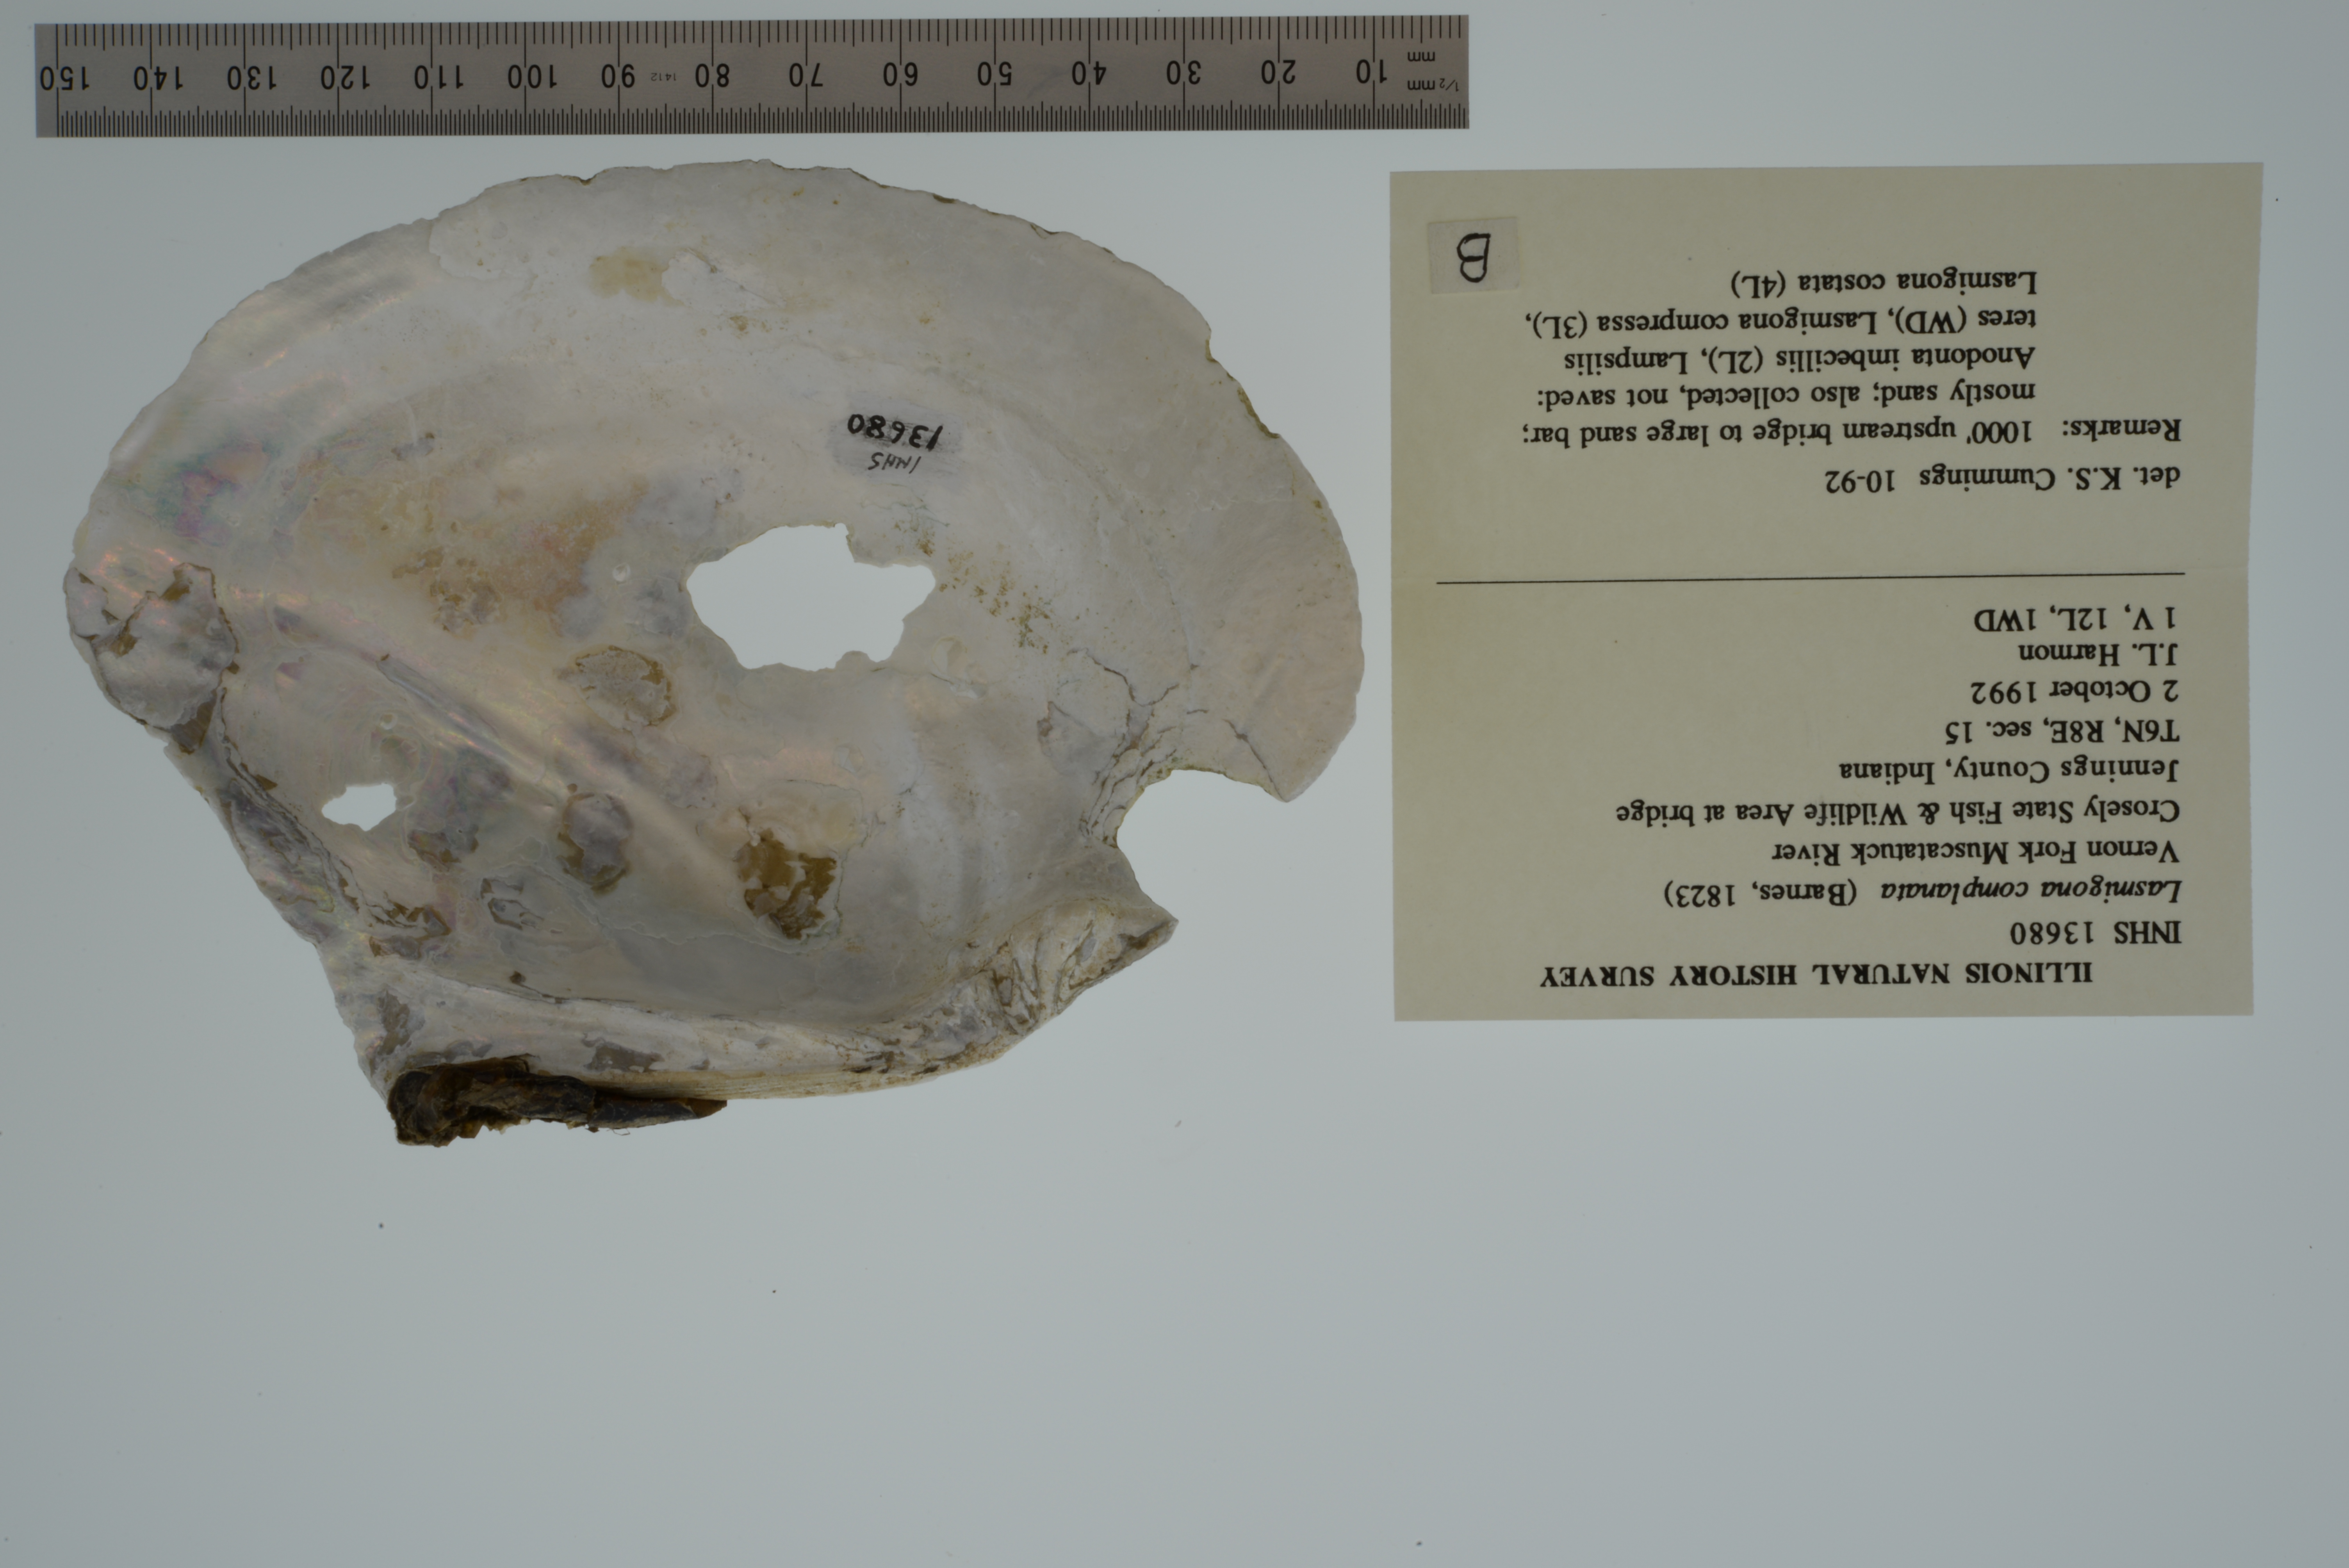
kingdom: Animalia
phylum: Mollusca
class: Bivalvia
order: Unionida
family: Unionidae
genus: Lasmigona
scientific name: Lasmigona complanata
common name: White heelsplitter
